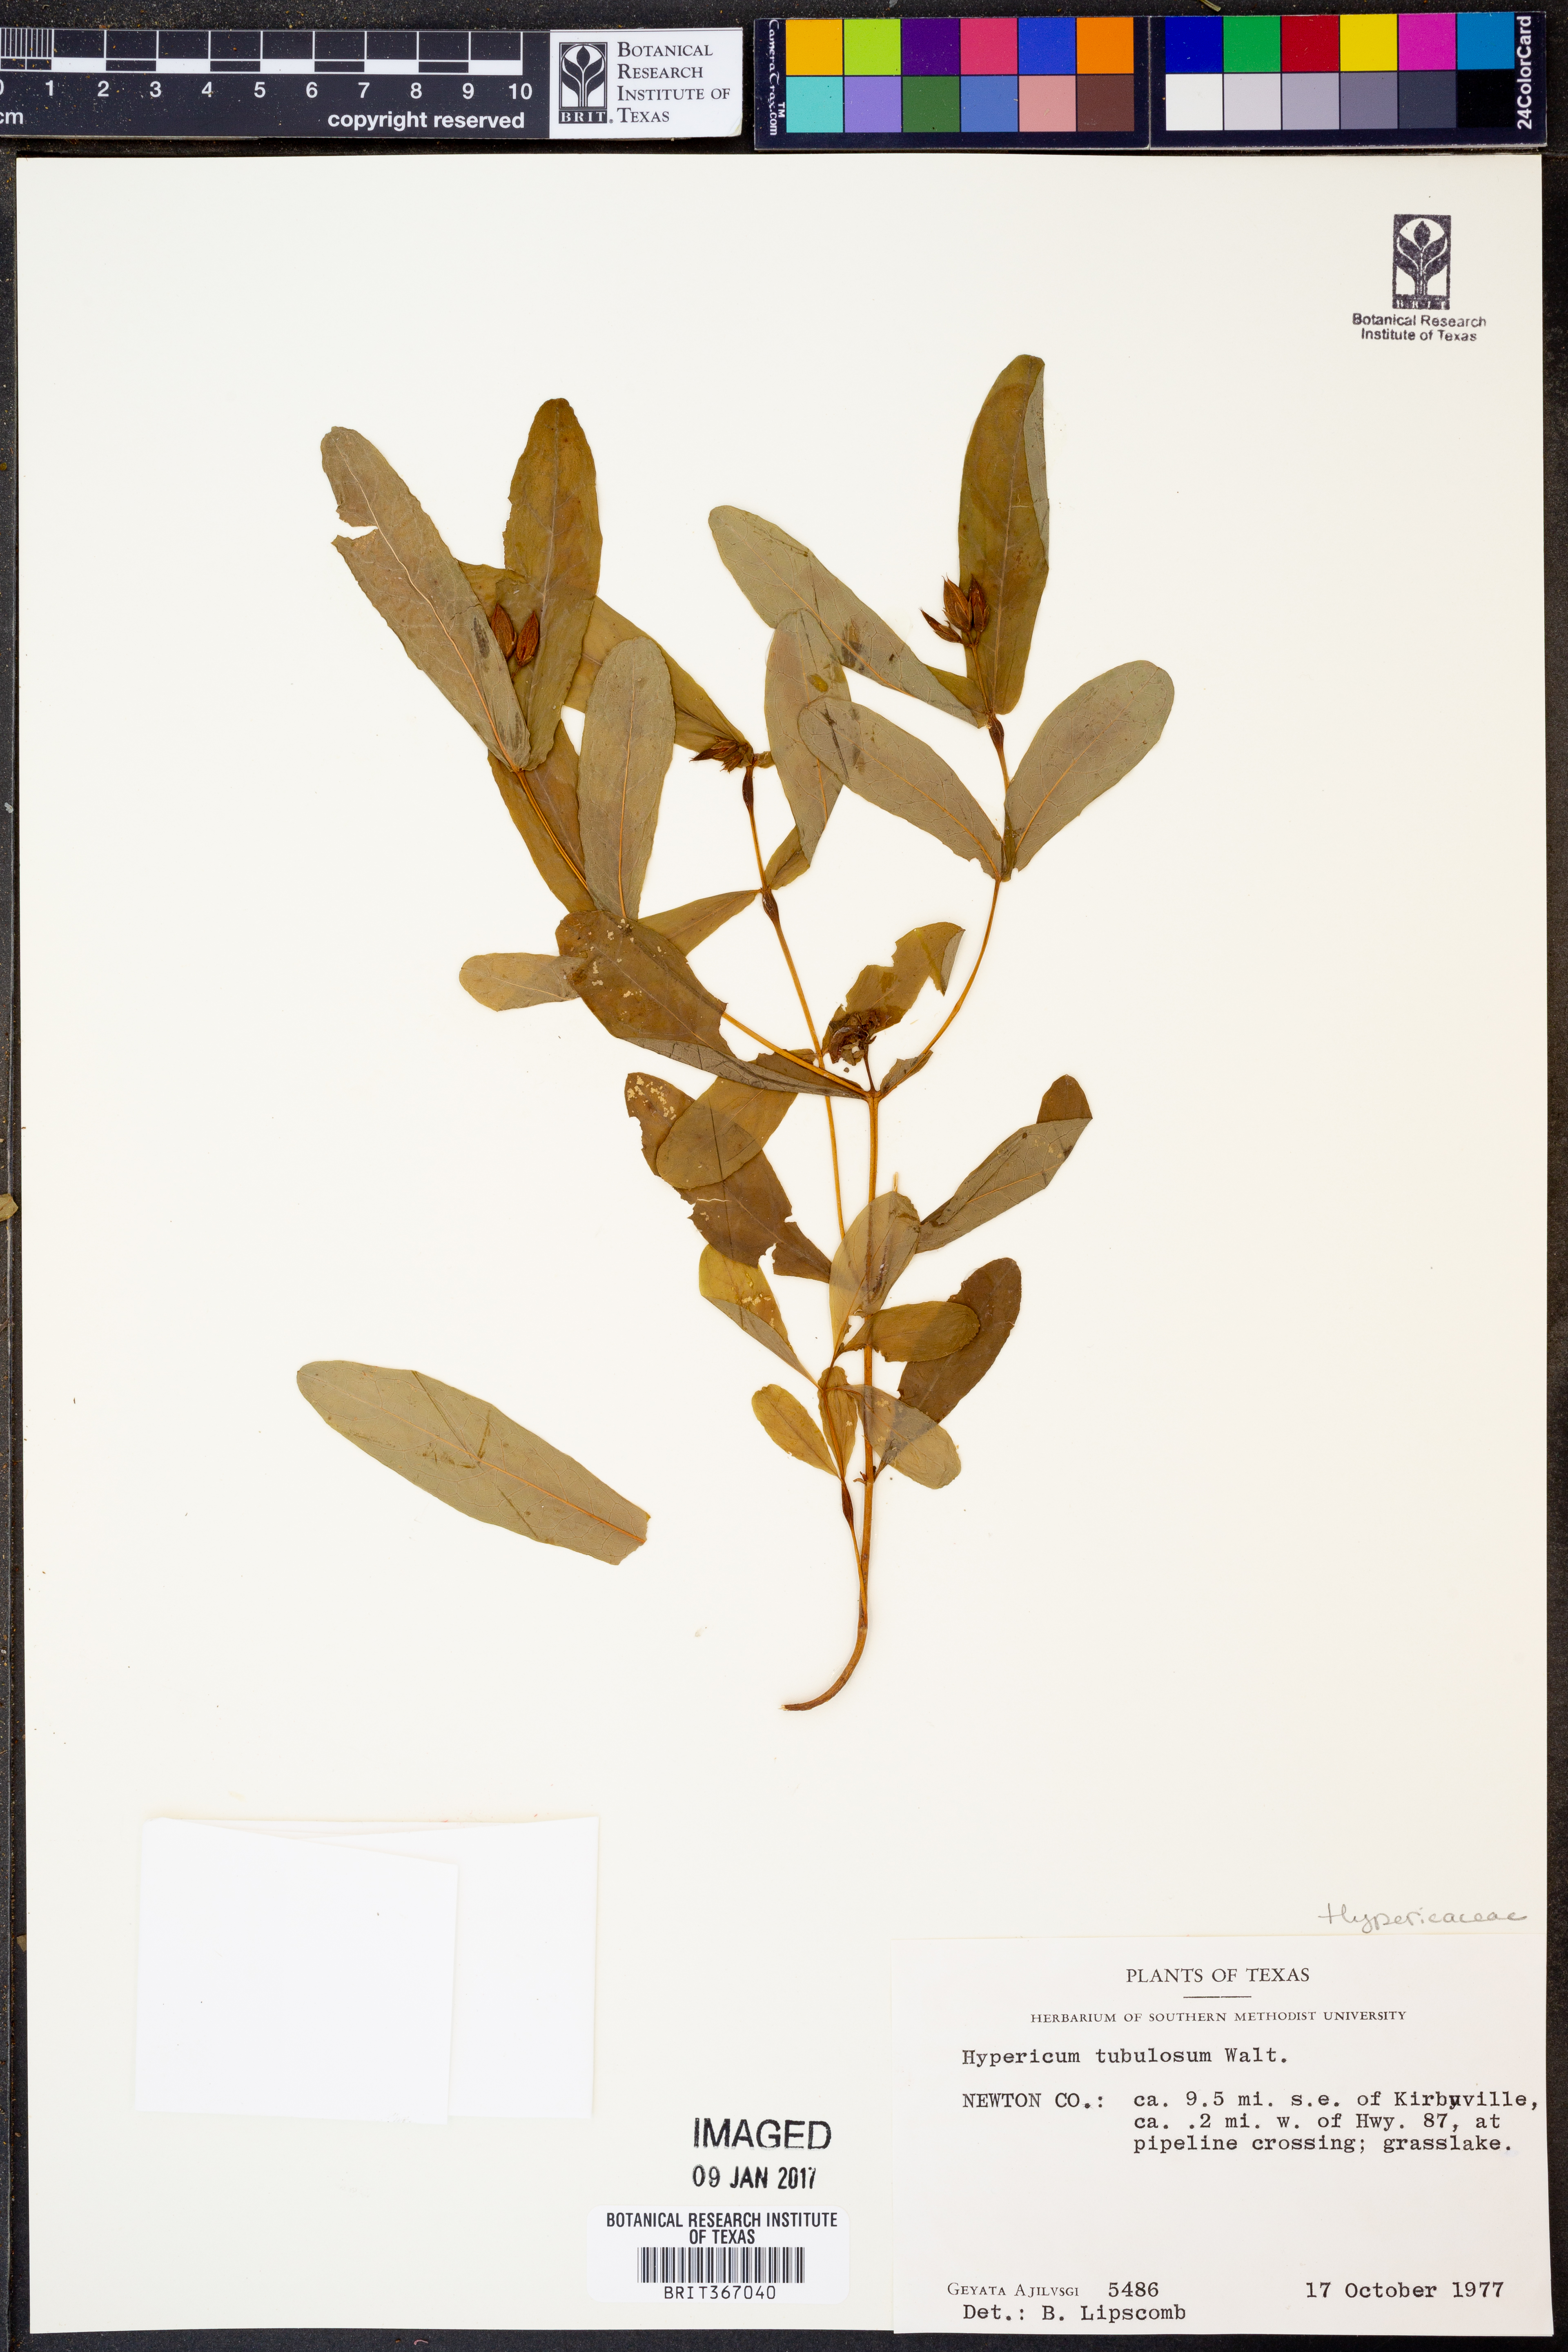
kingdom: Plantae
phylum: Tracheophyta
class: Magnoliopsida
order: Malpighiales
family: Hypericaceae
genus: Triadenum
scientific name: Triadenum tubulosum
